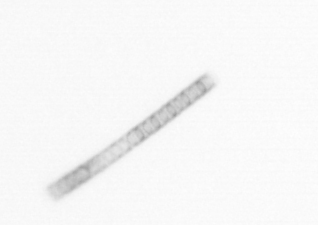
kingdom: Chromista
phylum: Ochrophyta
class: Bacillariophyceae
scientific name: Bacillariophyceae
